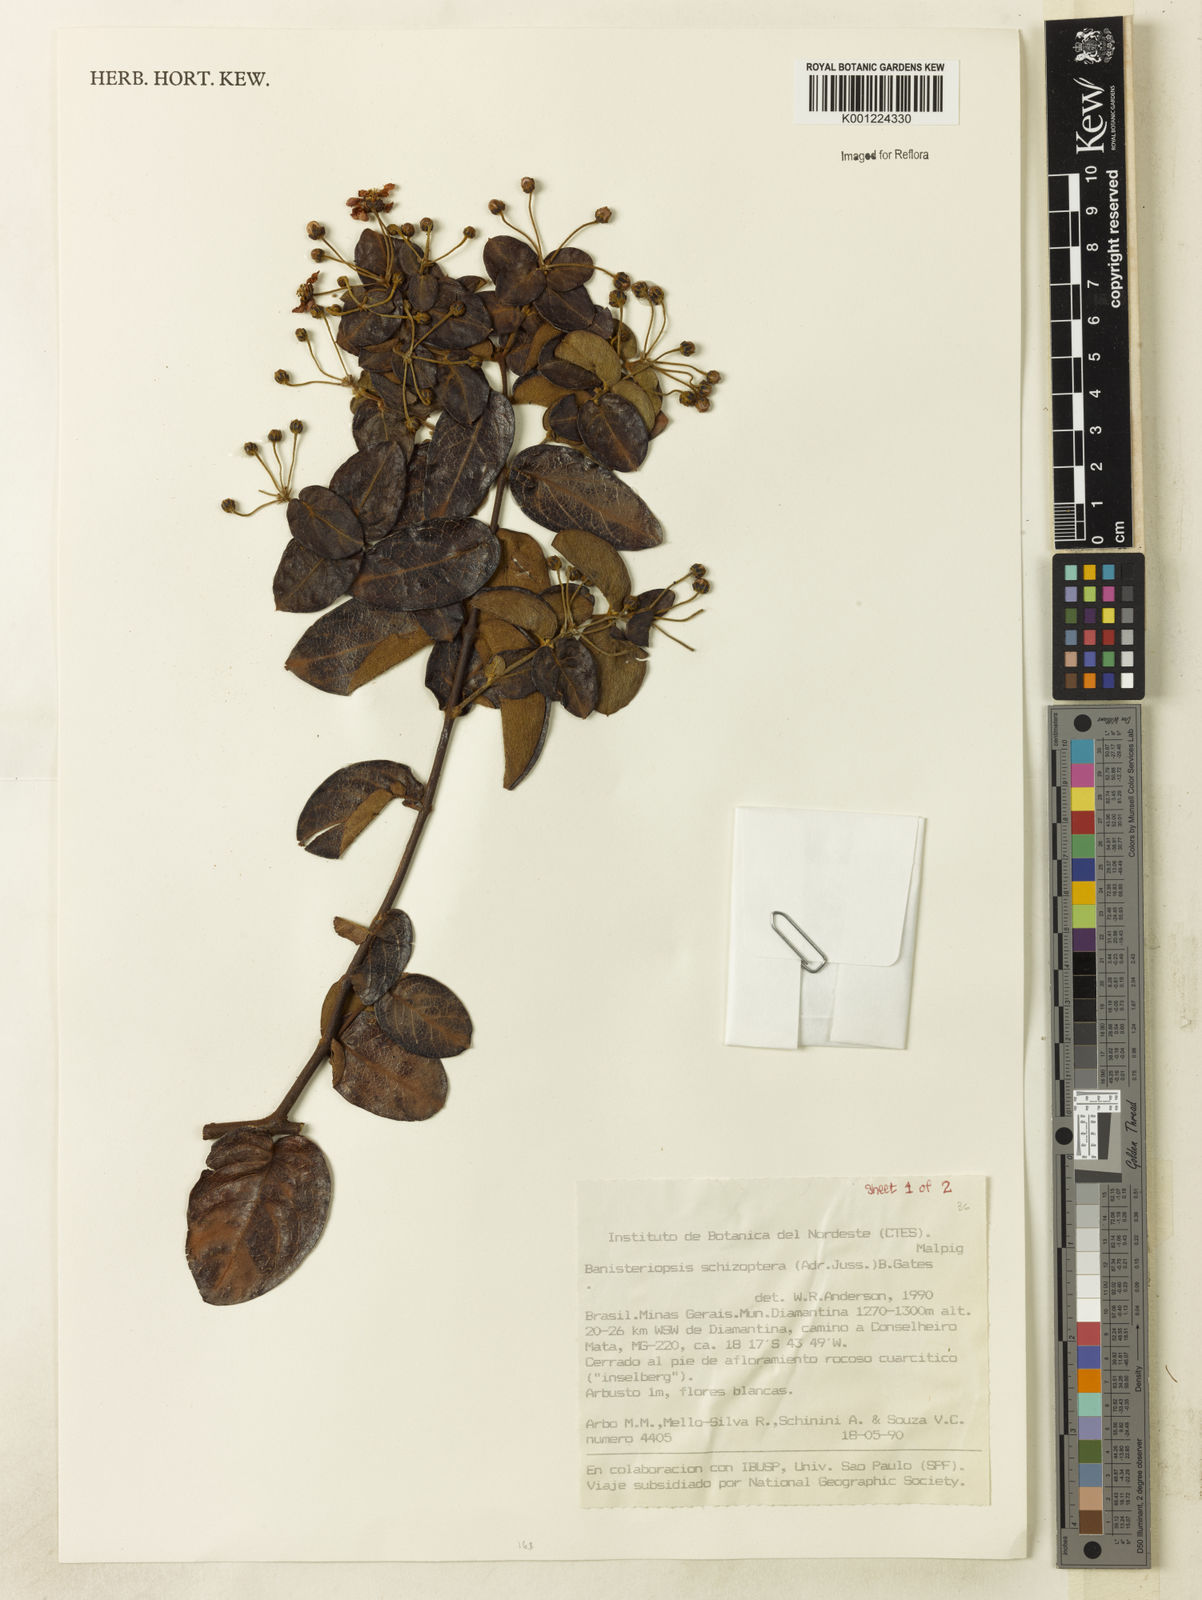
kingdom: Plantae
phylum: Tracheophyta
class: Magnoliopsida
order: Malpighiales
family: Malpighiaceae
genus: Banisteriopsis
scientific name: Banisteriopsis schizoptera
